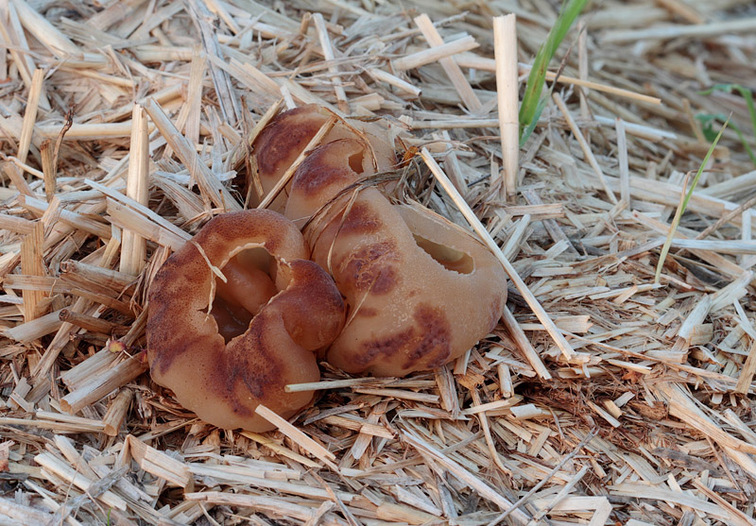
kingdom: Fungi
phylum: Ascomycota
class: Pezizomycetes
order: Pezizales
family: Pezizaceae
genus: Peziza
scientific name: Peziza vesiculosa
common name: blære-bægersvamp
